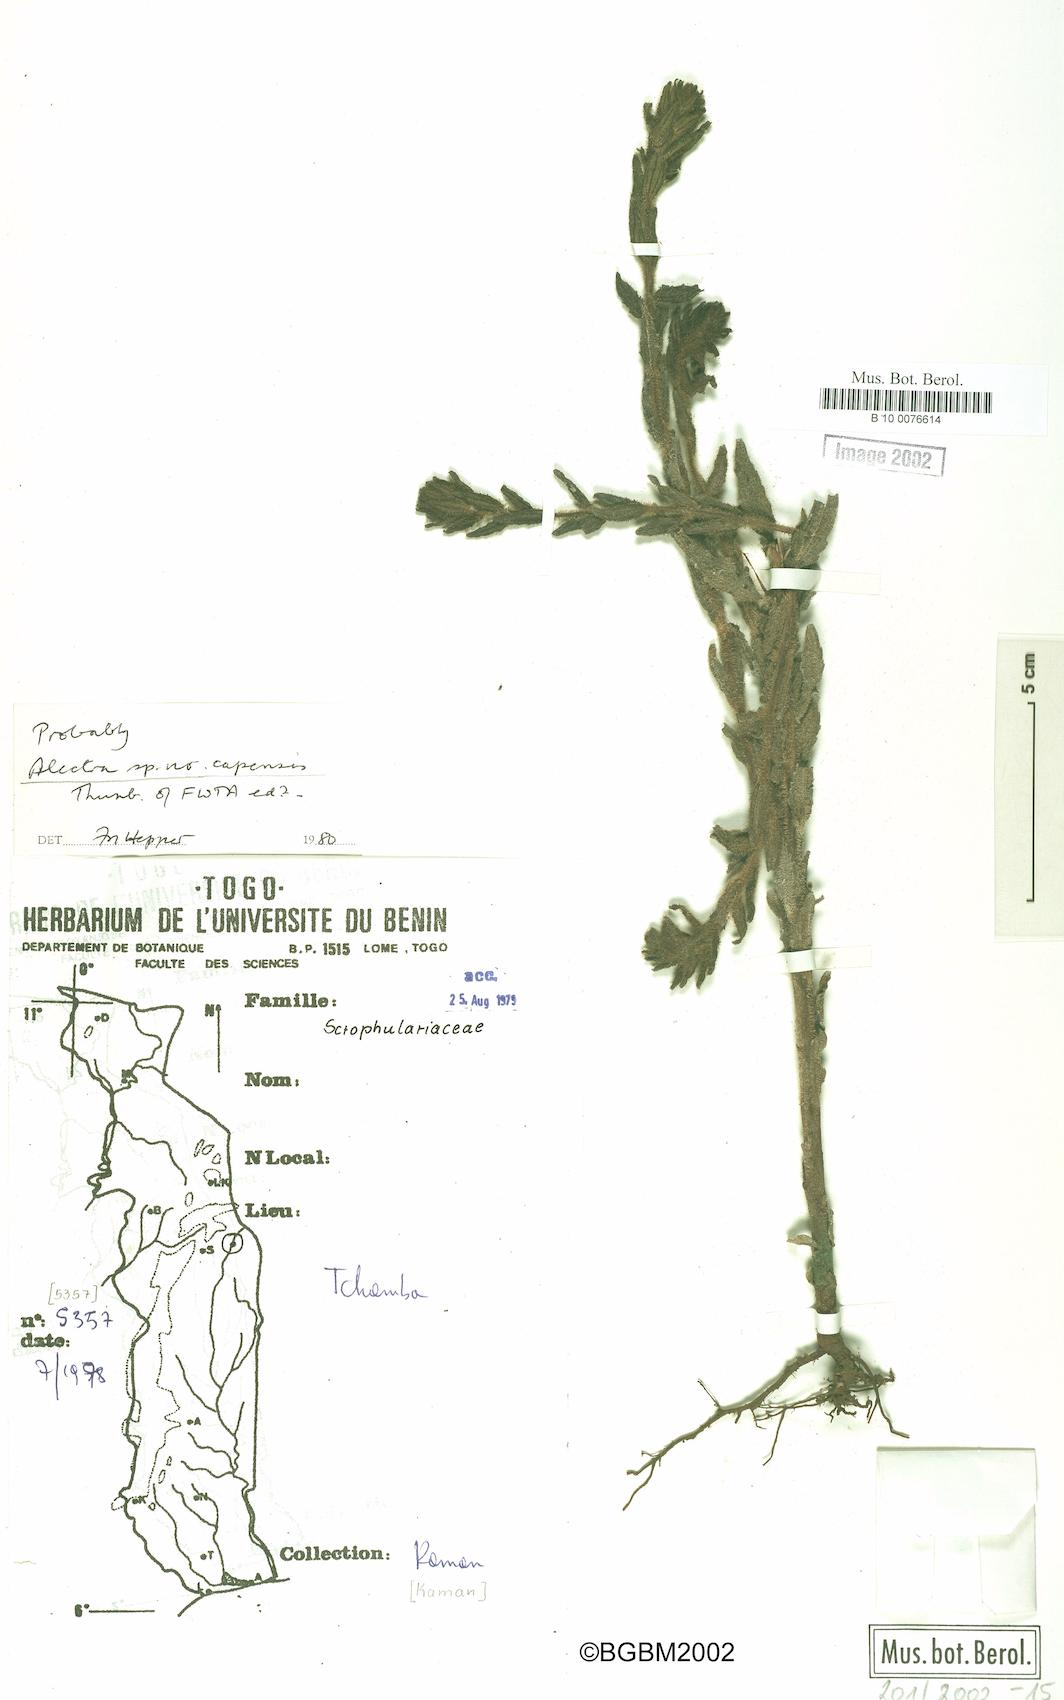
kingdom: Plantae
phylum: Tracheophyta
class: Magnoliopsida
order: Lamiales
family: Orobanchaceae
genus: Alectra
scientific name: Alectra capensis
